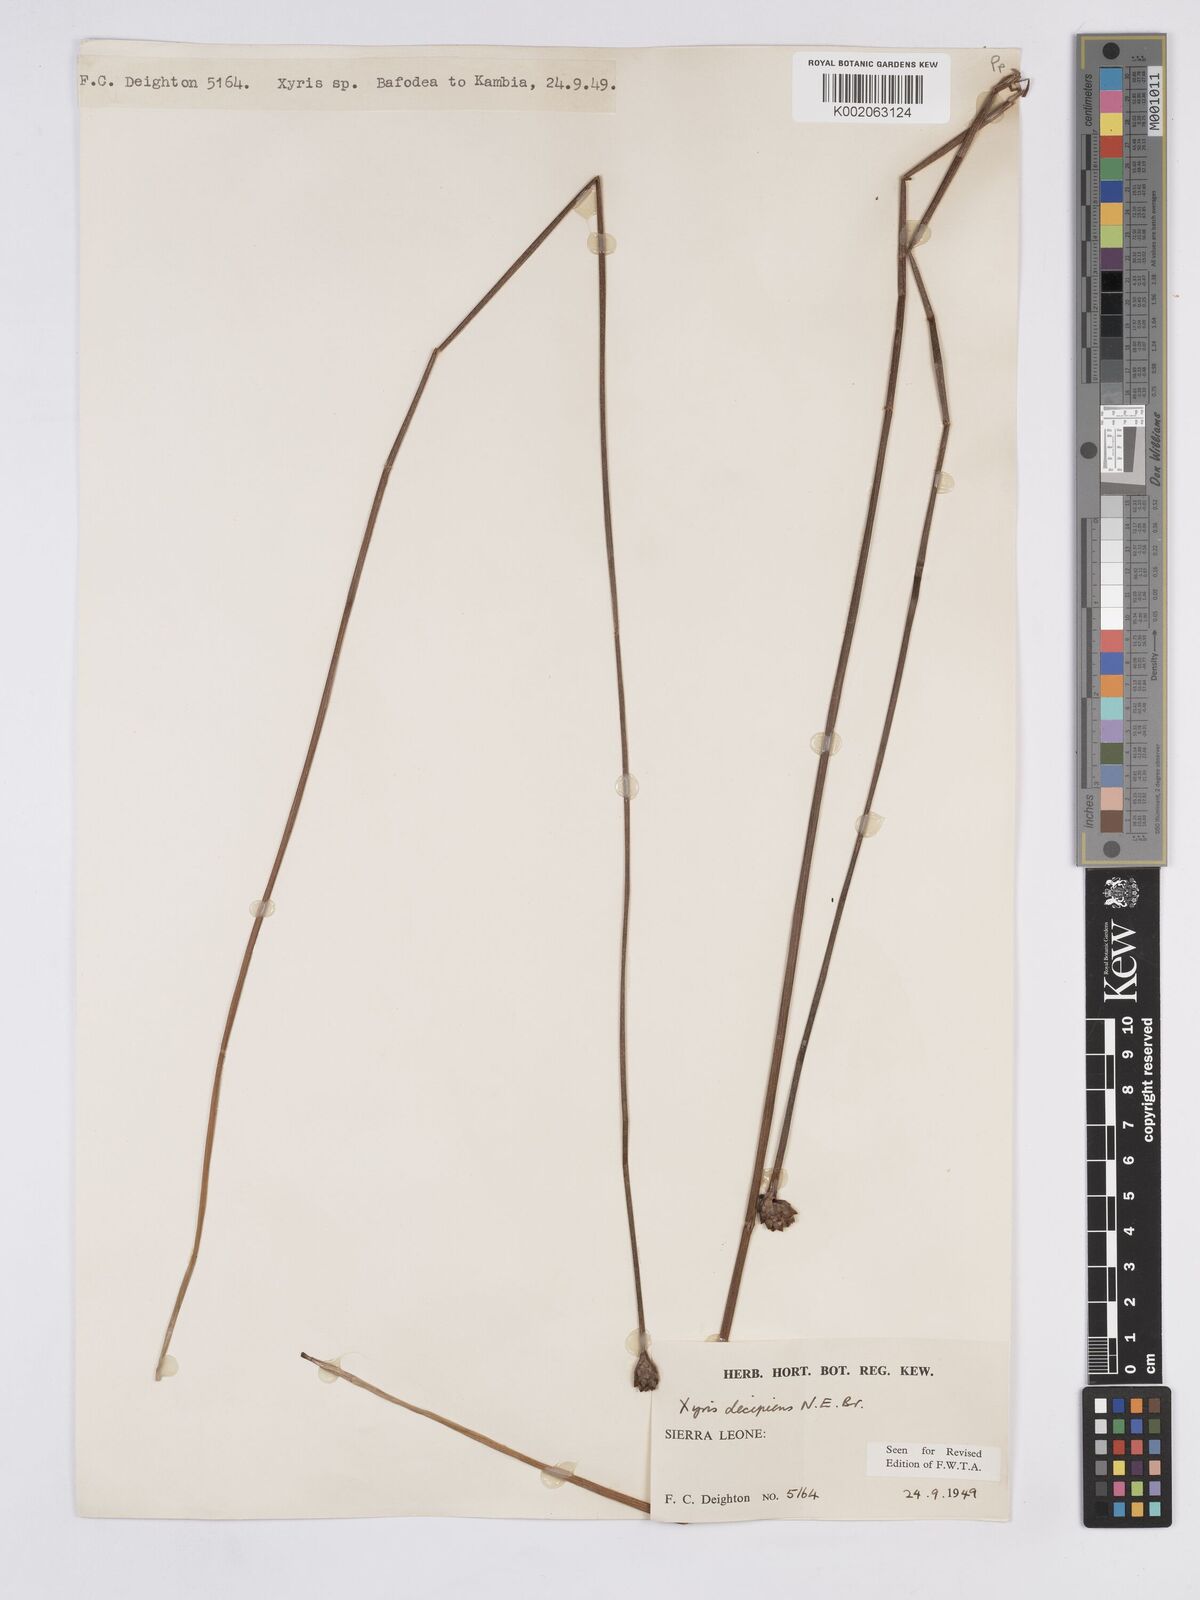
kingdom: Plantae
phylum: Tracheophyta
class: Liliopsida
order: Poales
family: Xyridaceae
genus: Xyris
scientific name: Xyris decipiens
